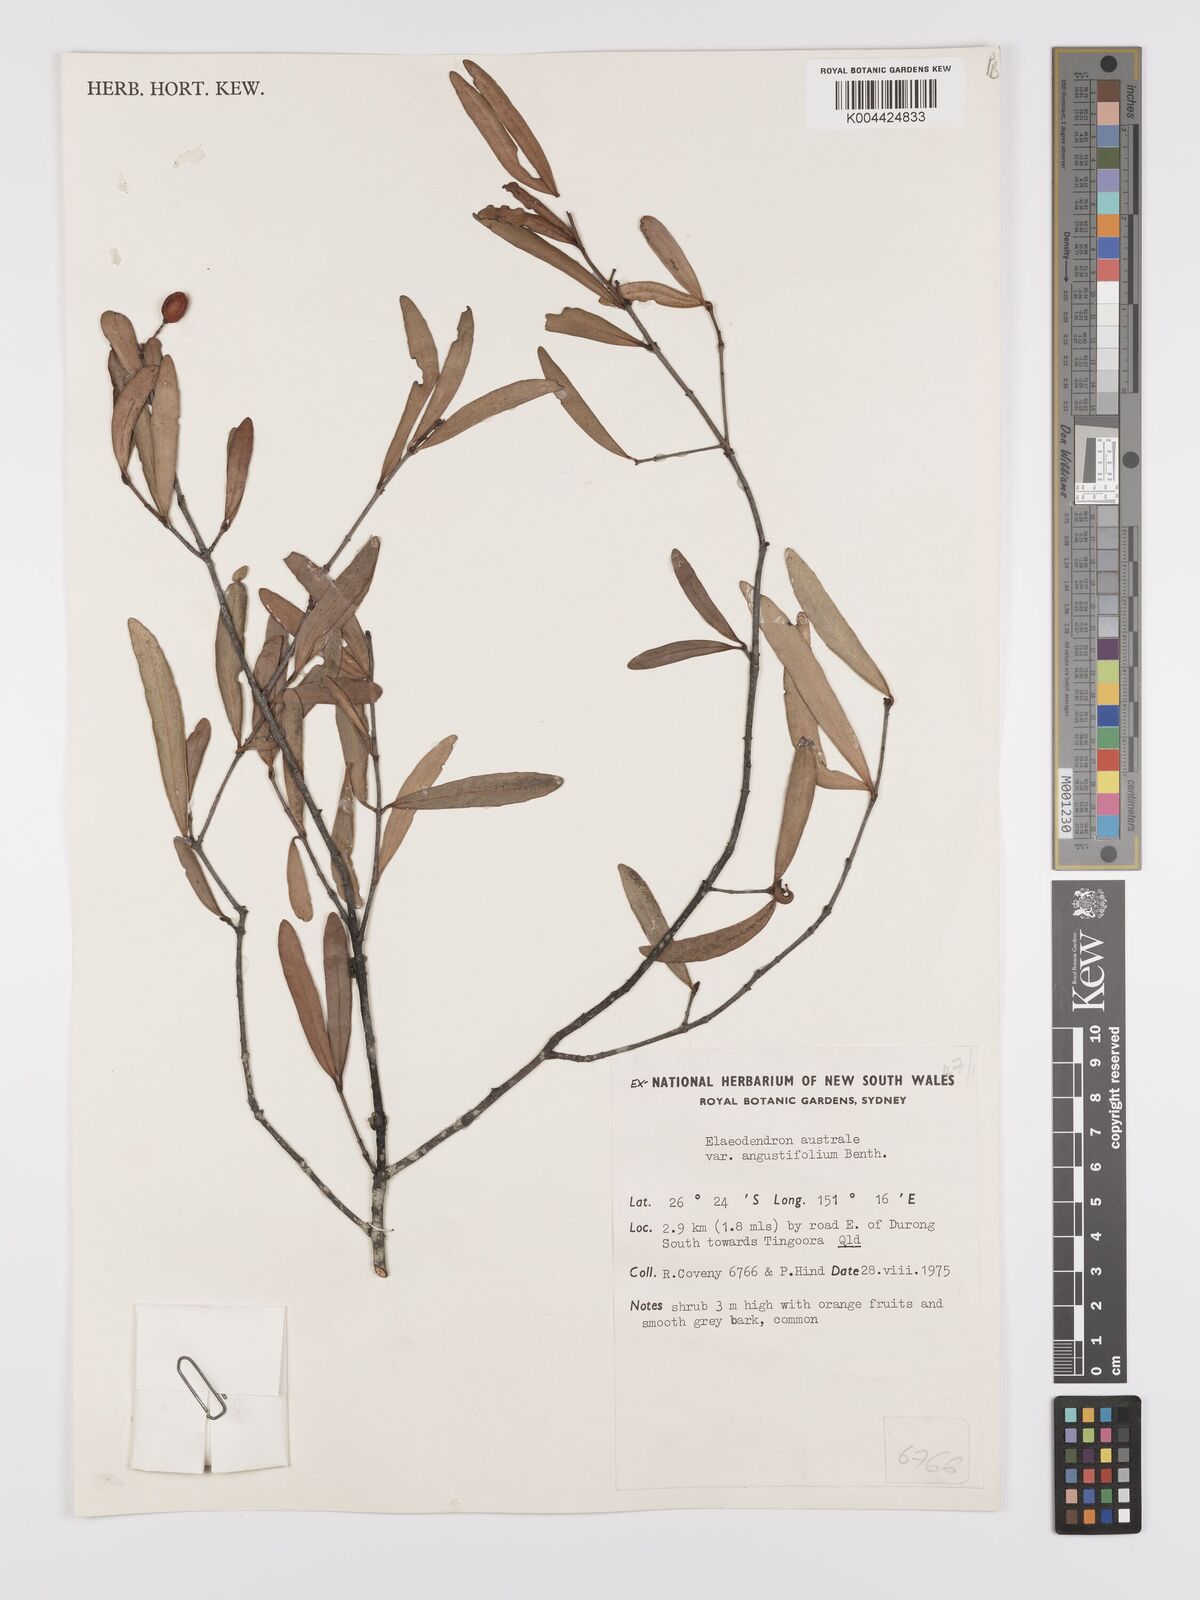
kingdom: Plantae
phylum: Tracheophyta
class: Magnoliopsida
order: Celastrales
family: Celastraceae
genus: Elaeodendron
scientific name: Elaeodendron australe
